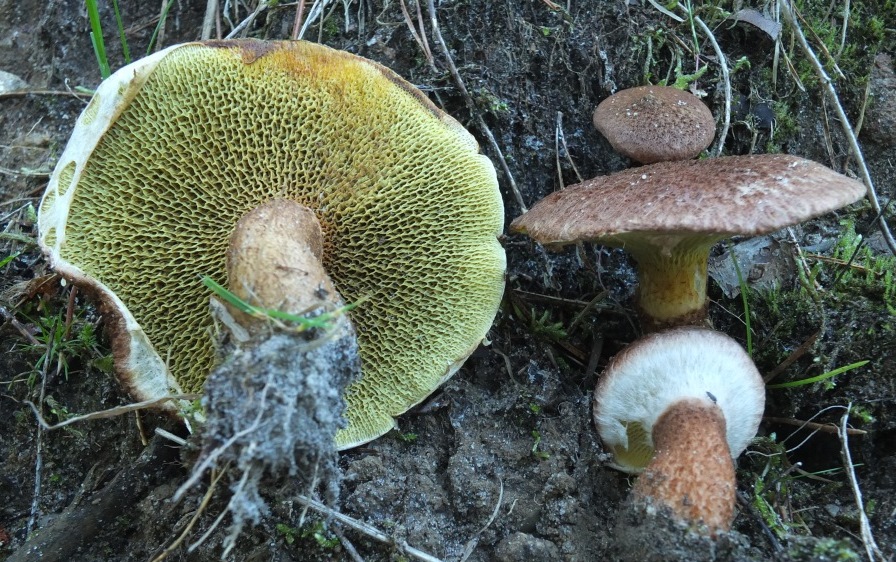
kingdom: Fungi
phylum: Basidiomycota
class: Agaricomycetes
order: Boletales
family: Suillaceae
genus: Suillus
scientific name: Suillus cavipes
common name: hulstokket slimrørhat
